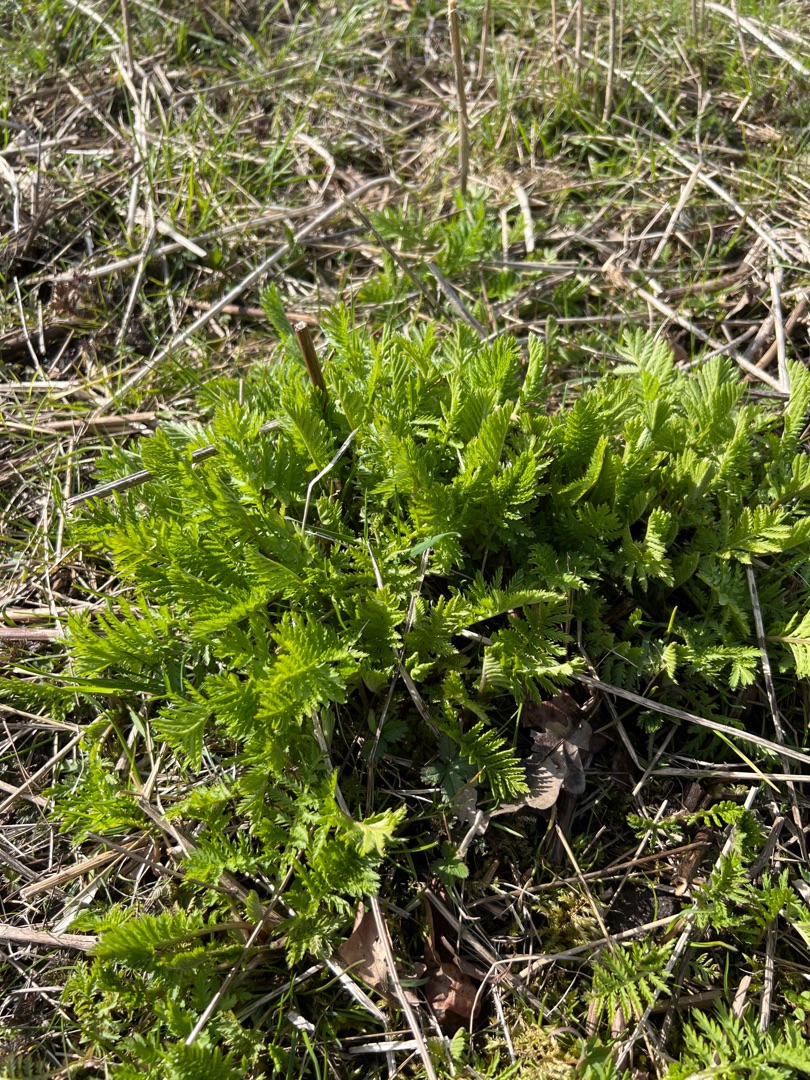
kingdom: Plantae
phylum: Tracheophyta
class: Magnoliopsida
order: Asterales
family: Asteraceae
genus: Tanacetum
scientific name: Tanacetum vulgare
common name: Rejnfan
